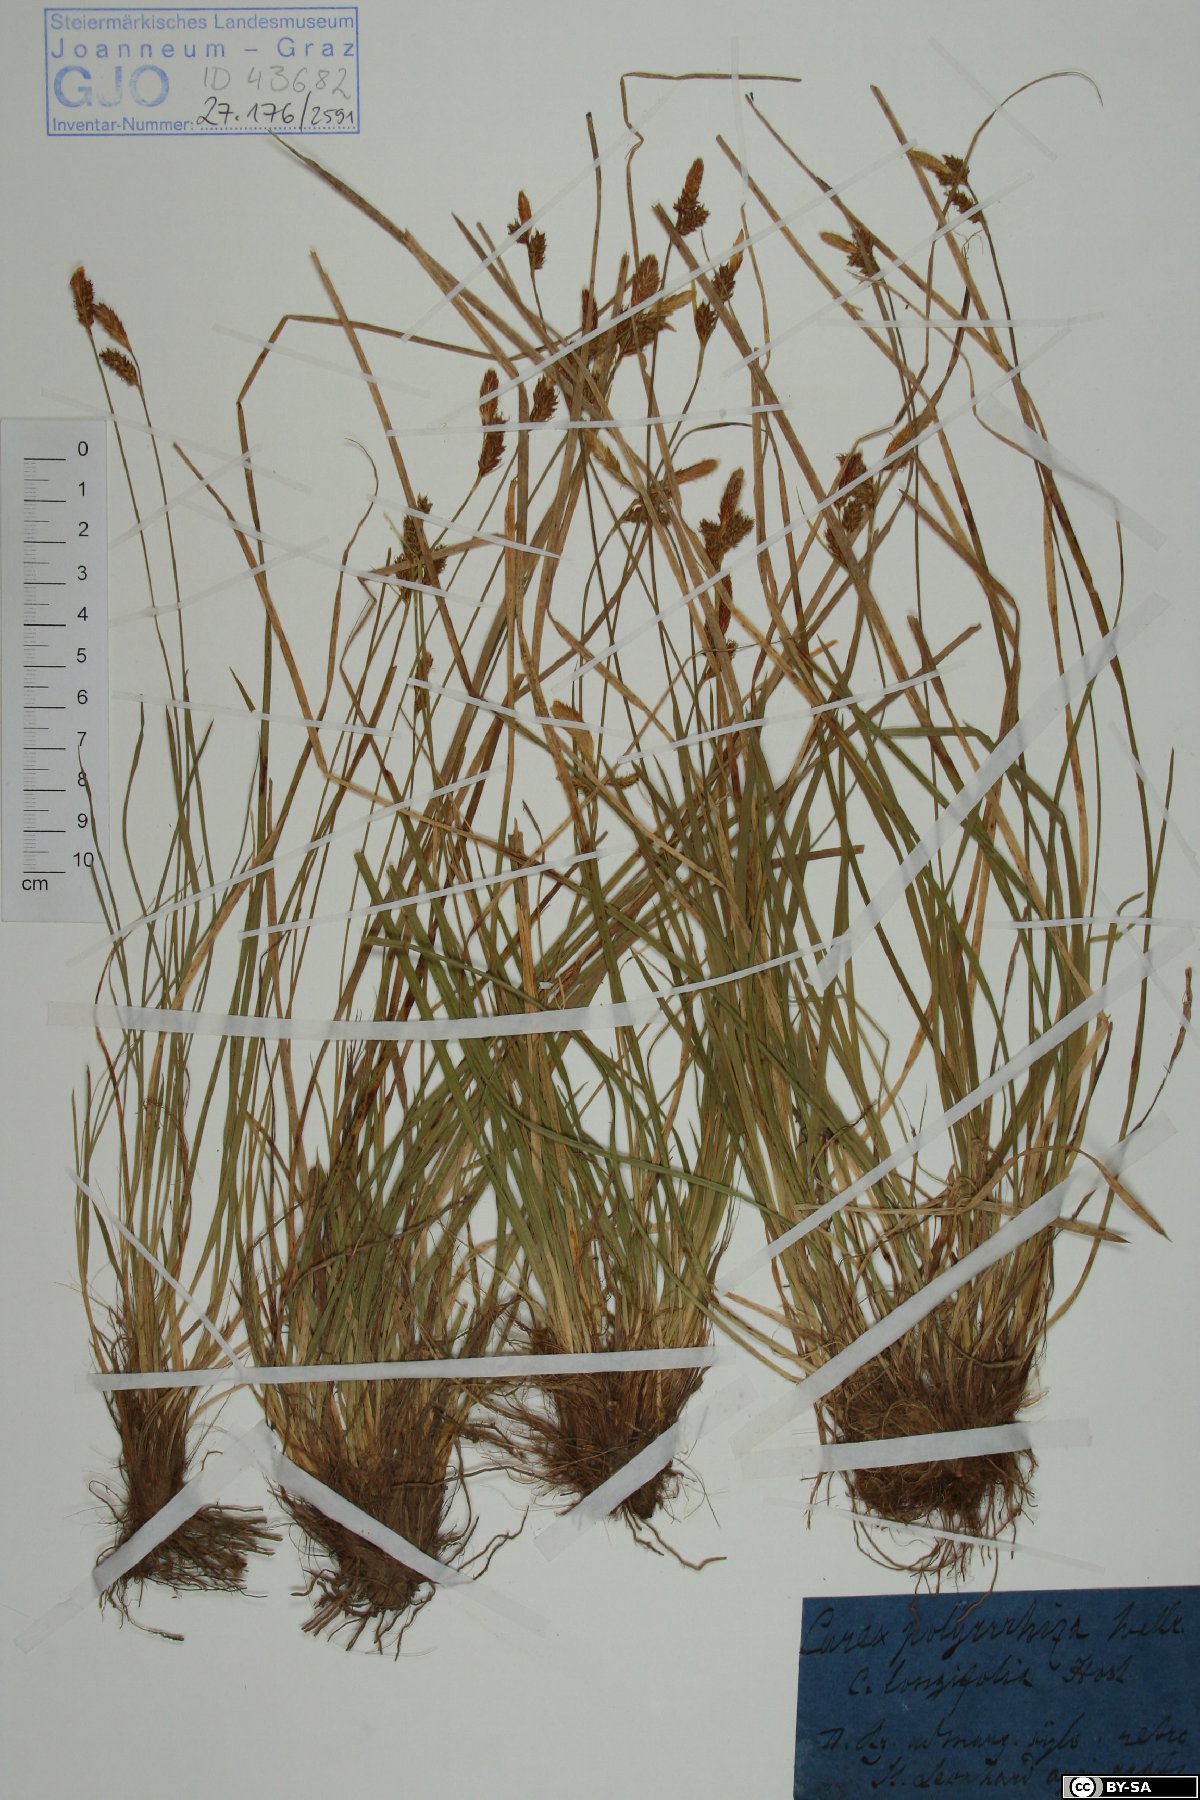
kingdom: Plantae
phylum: Tracheophyta
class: Liliopsida
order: Poales
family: Cyperaceae
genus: Carex
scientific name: Carex umbrosa
